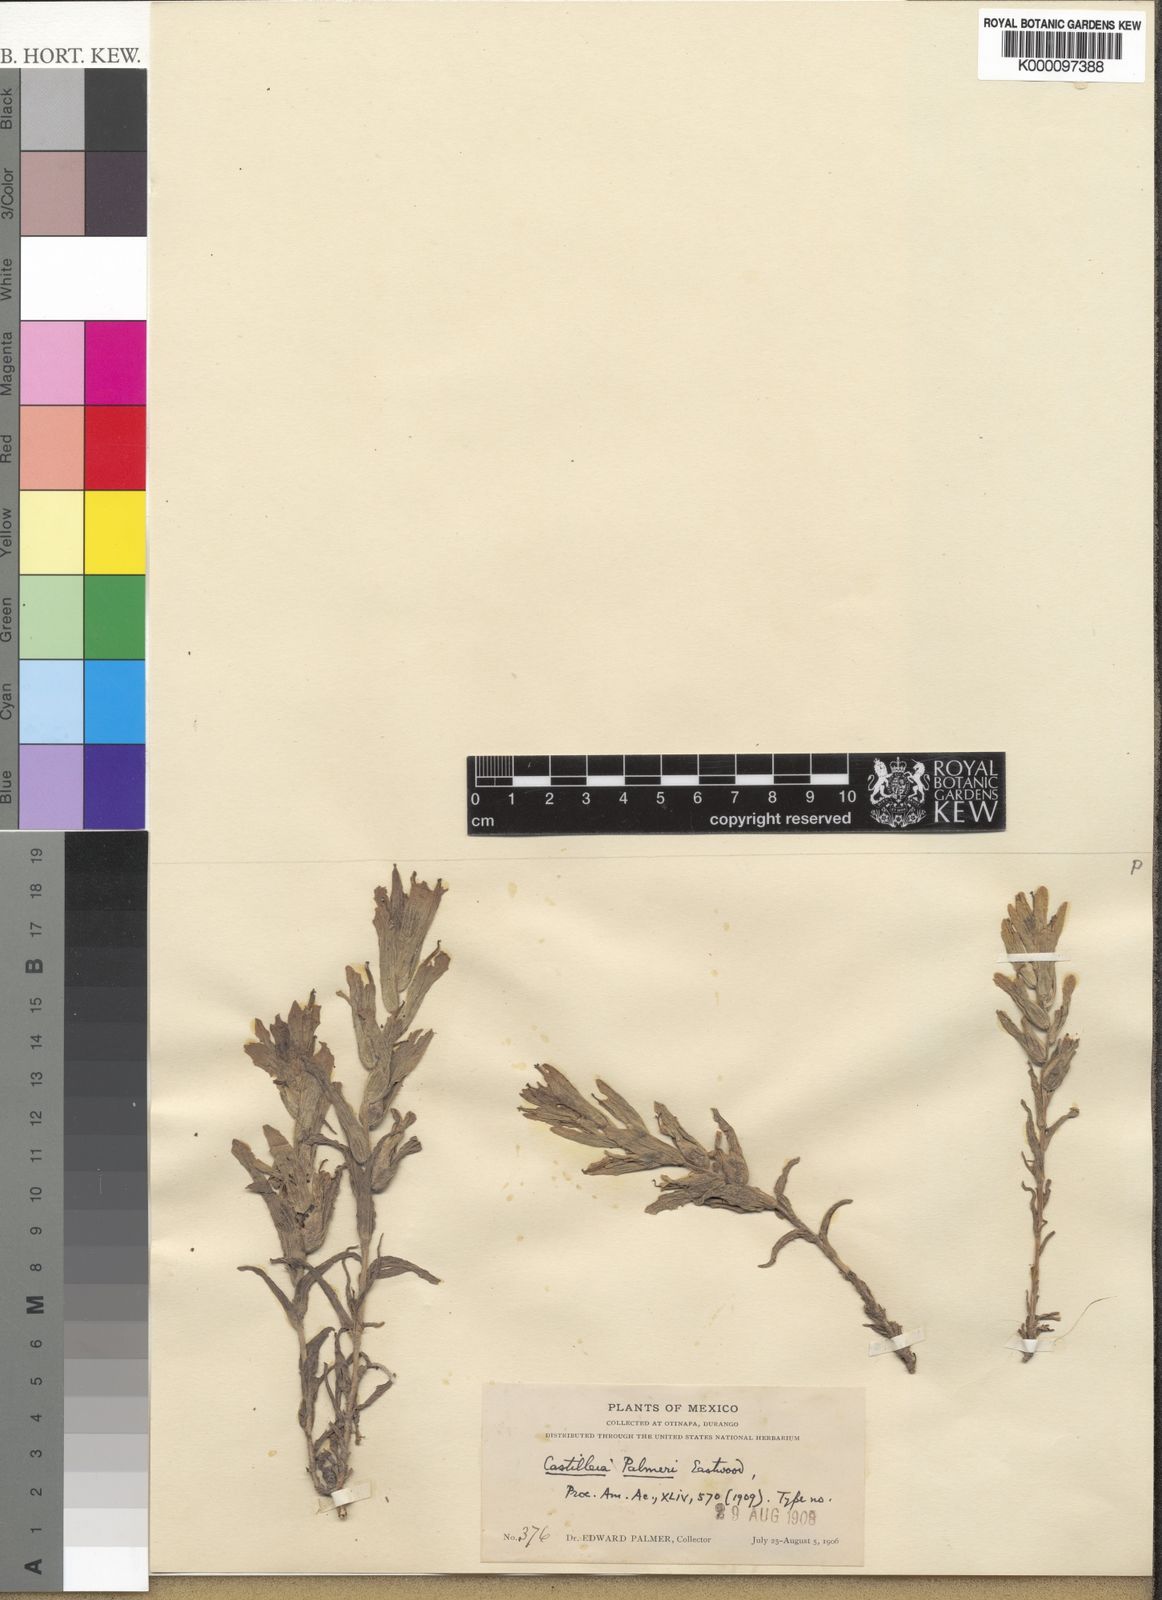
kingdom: Plantae
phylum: Tracheophyta
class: Magnoliopsida
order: Lamiales
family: Orobanchaceae
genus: Castilleja
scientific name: Castilleja ornata
